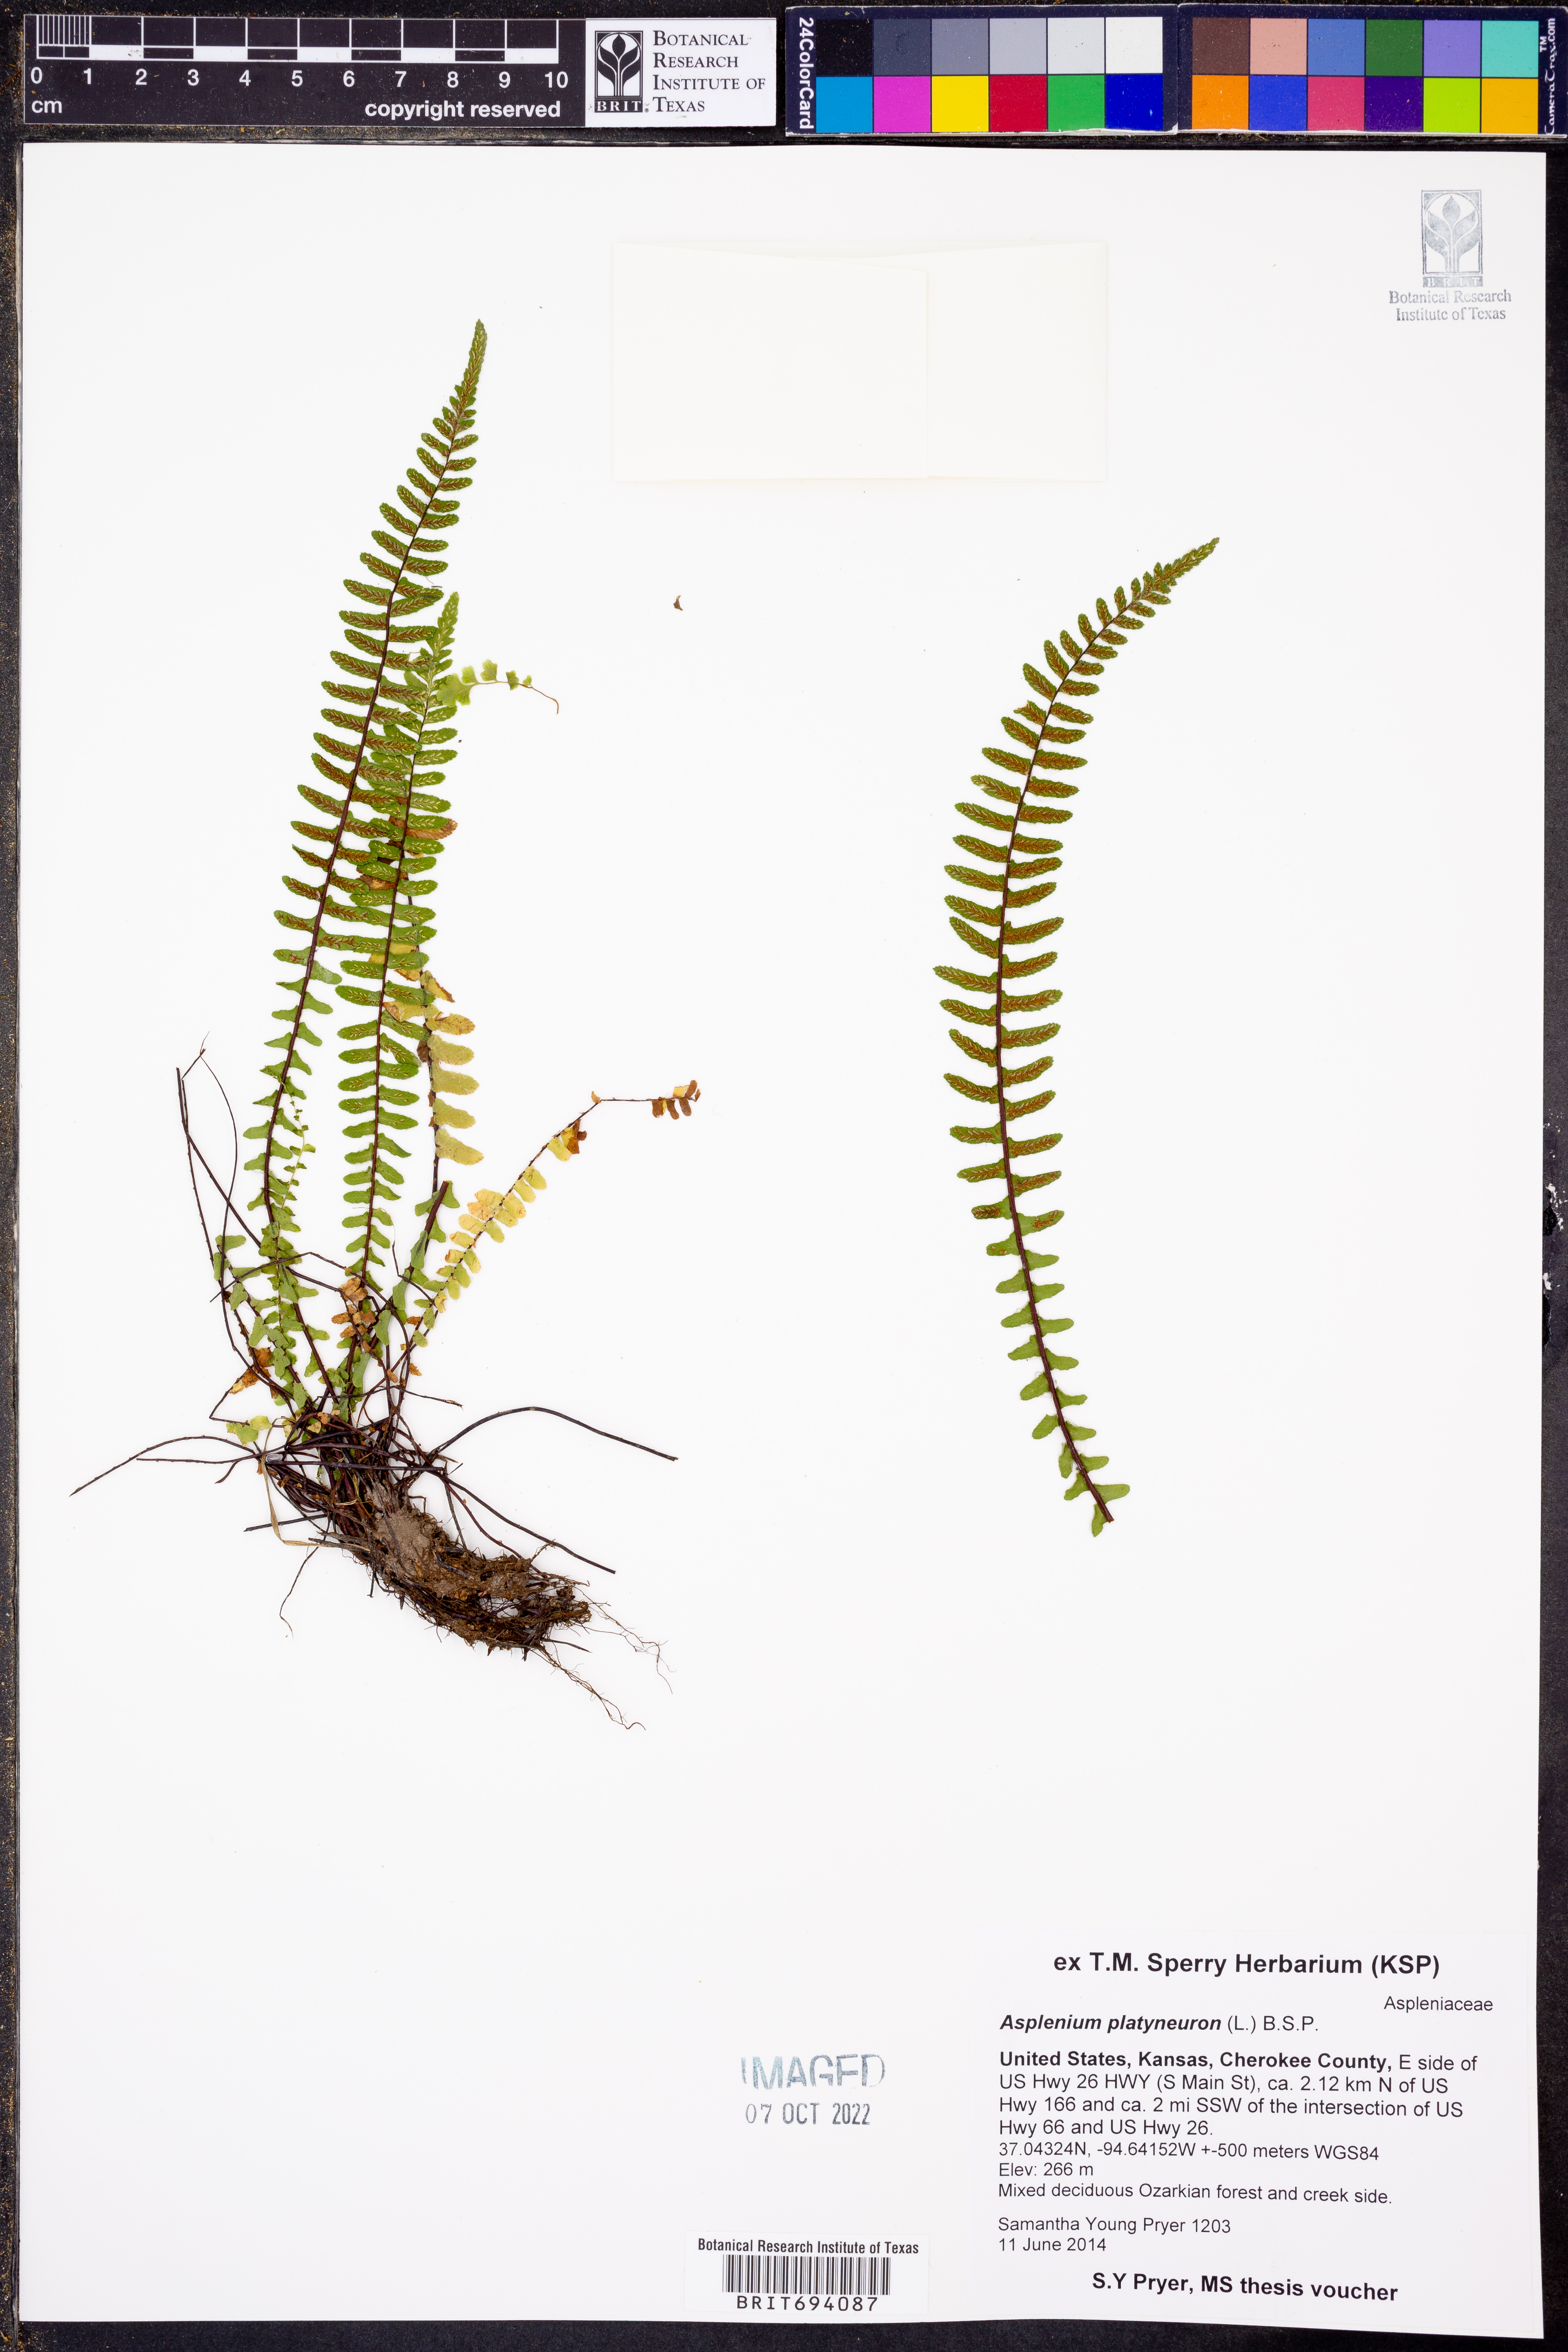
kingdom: Plantae
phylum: Tracheophyta
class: Polypodiopsida
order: Polypodiales
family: Aspleniaceae
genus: Asplenium
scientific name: Asplenium platyneuron
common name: Ebony spleenwort
